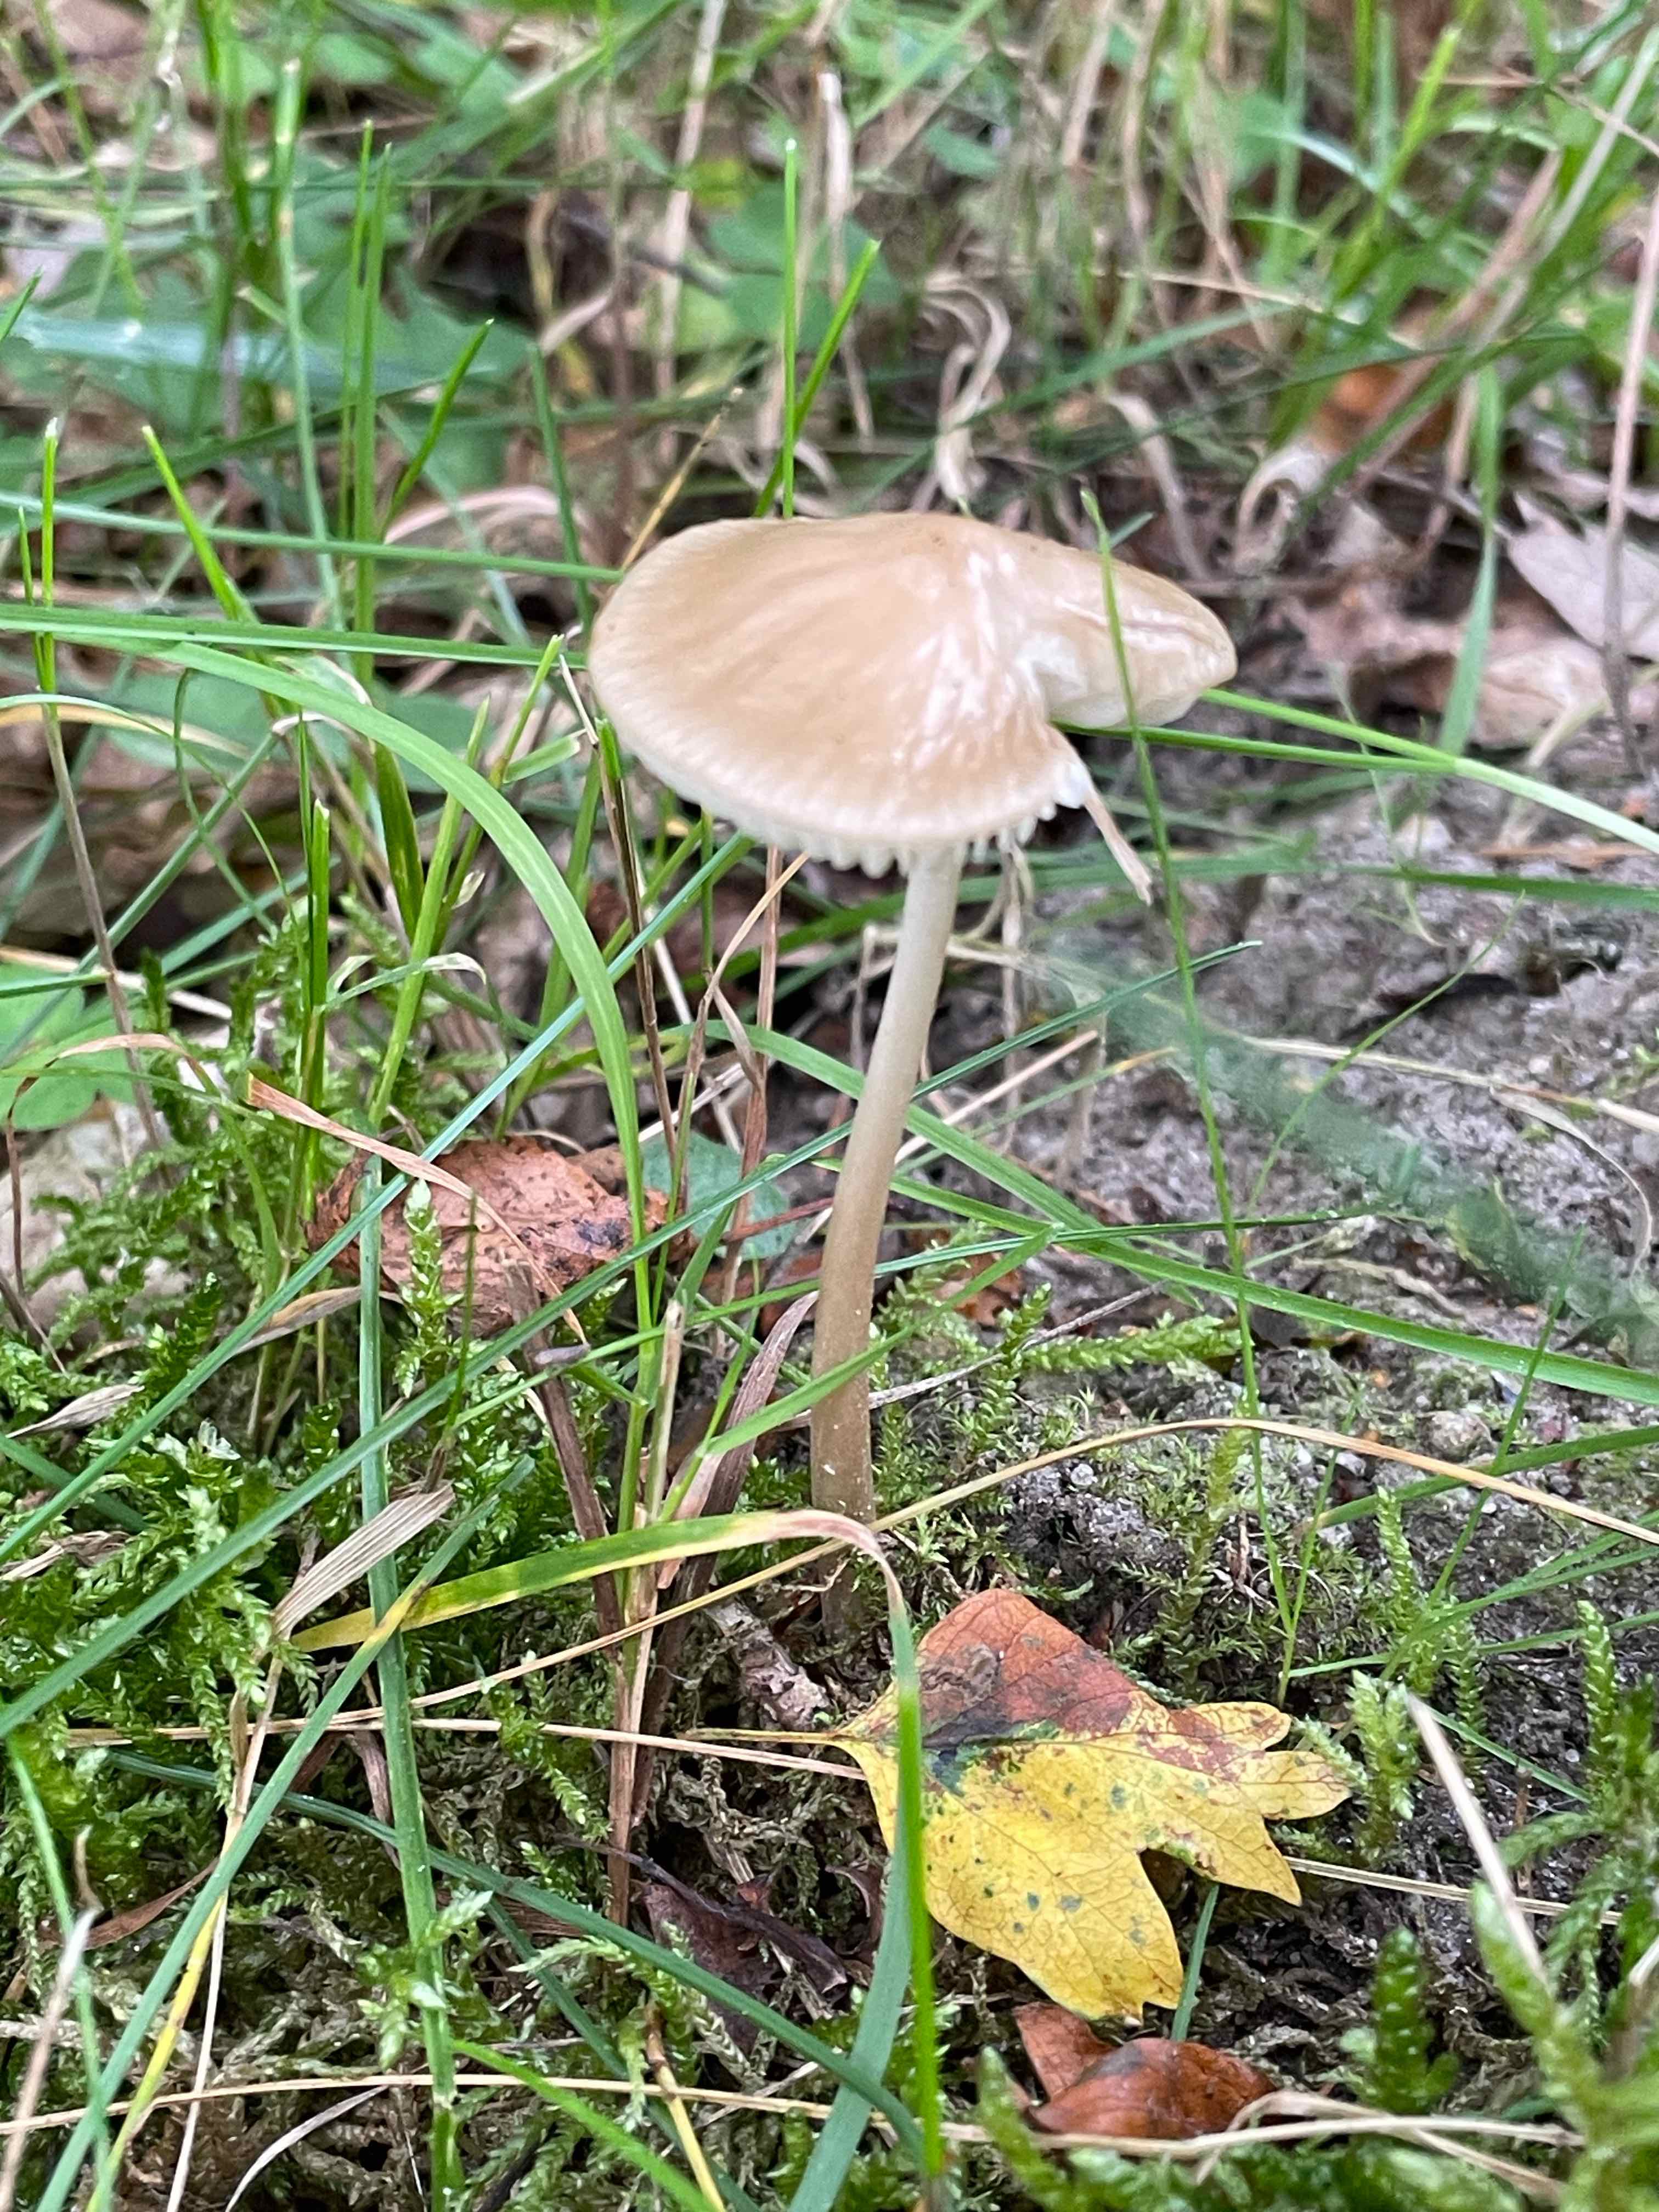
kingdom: Fungi
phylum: Basidiomycota
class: Agaricomycetes
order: Agaricales
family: Physalacriaceae
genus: Hymenopellis
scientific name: Hymenopellis radicata
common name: almindelig pælerodshat
